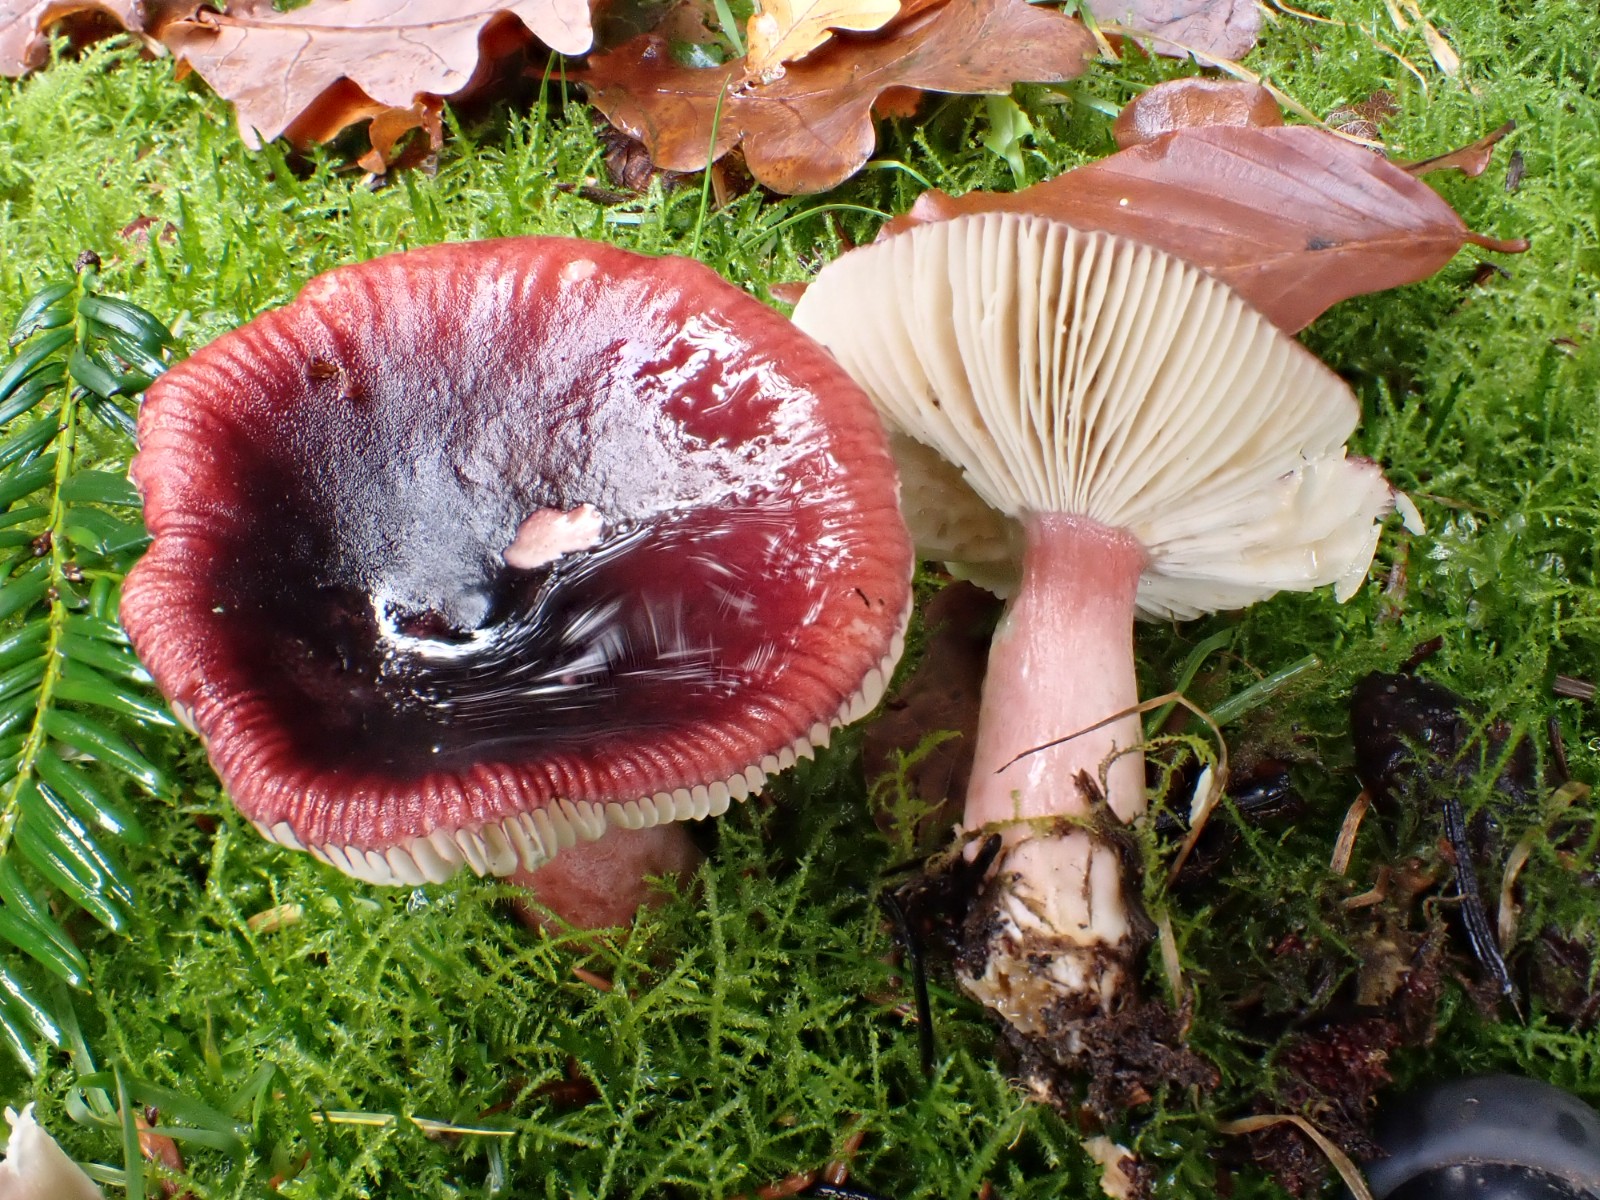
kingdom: Fungi
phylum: Basidiomycota
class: Agaricomycetes
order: Russulales
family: Russulaceae
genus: Russula
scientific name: Russula queletii
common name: Quélets skørhat
